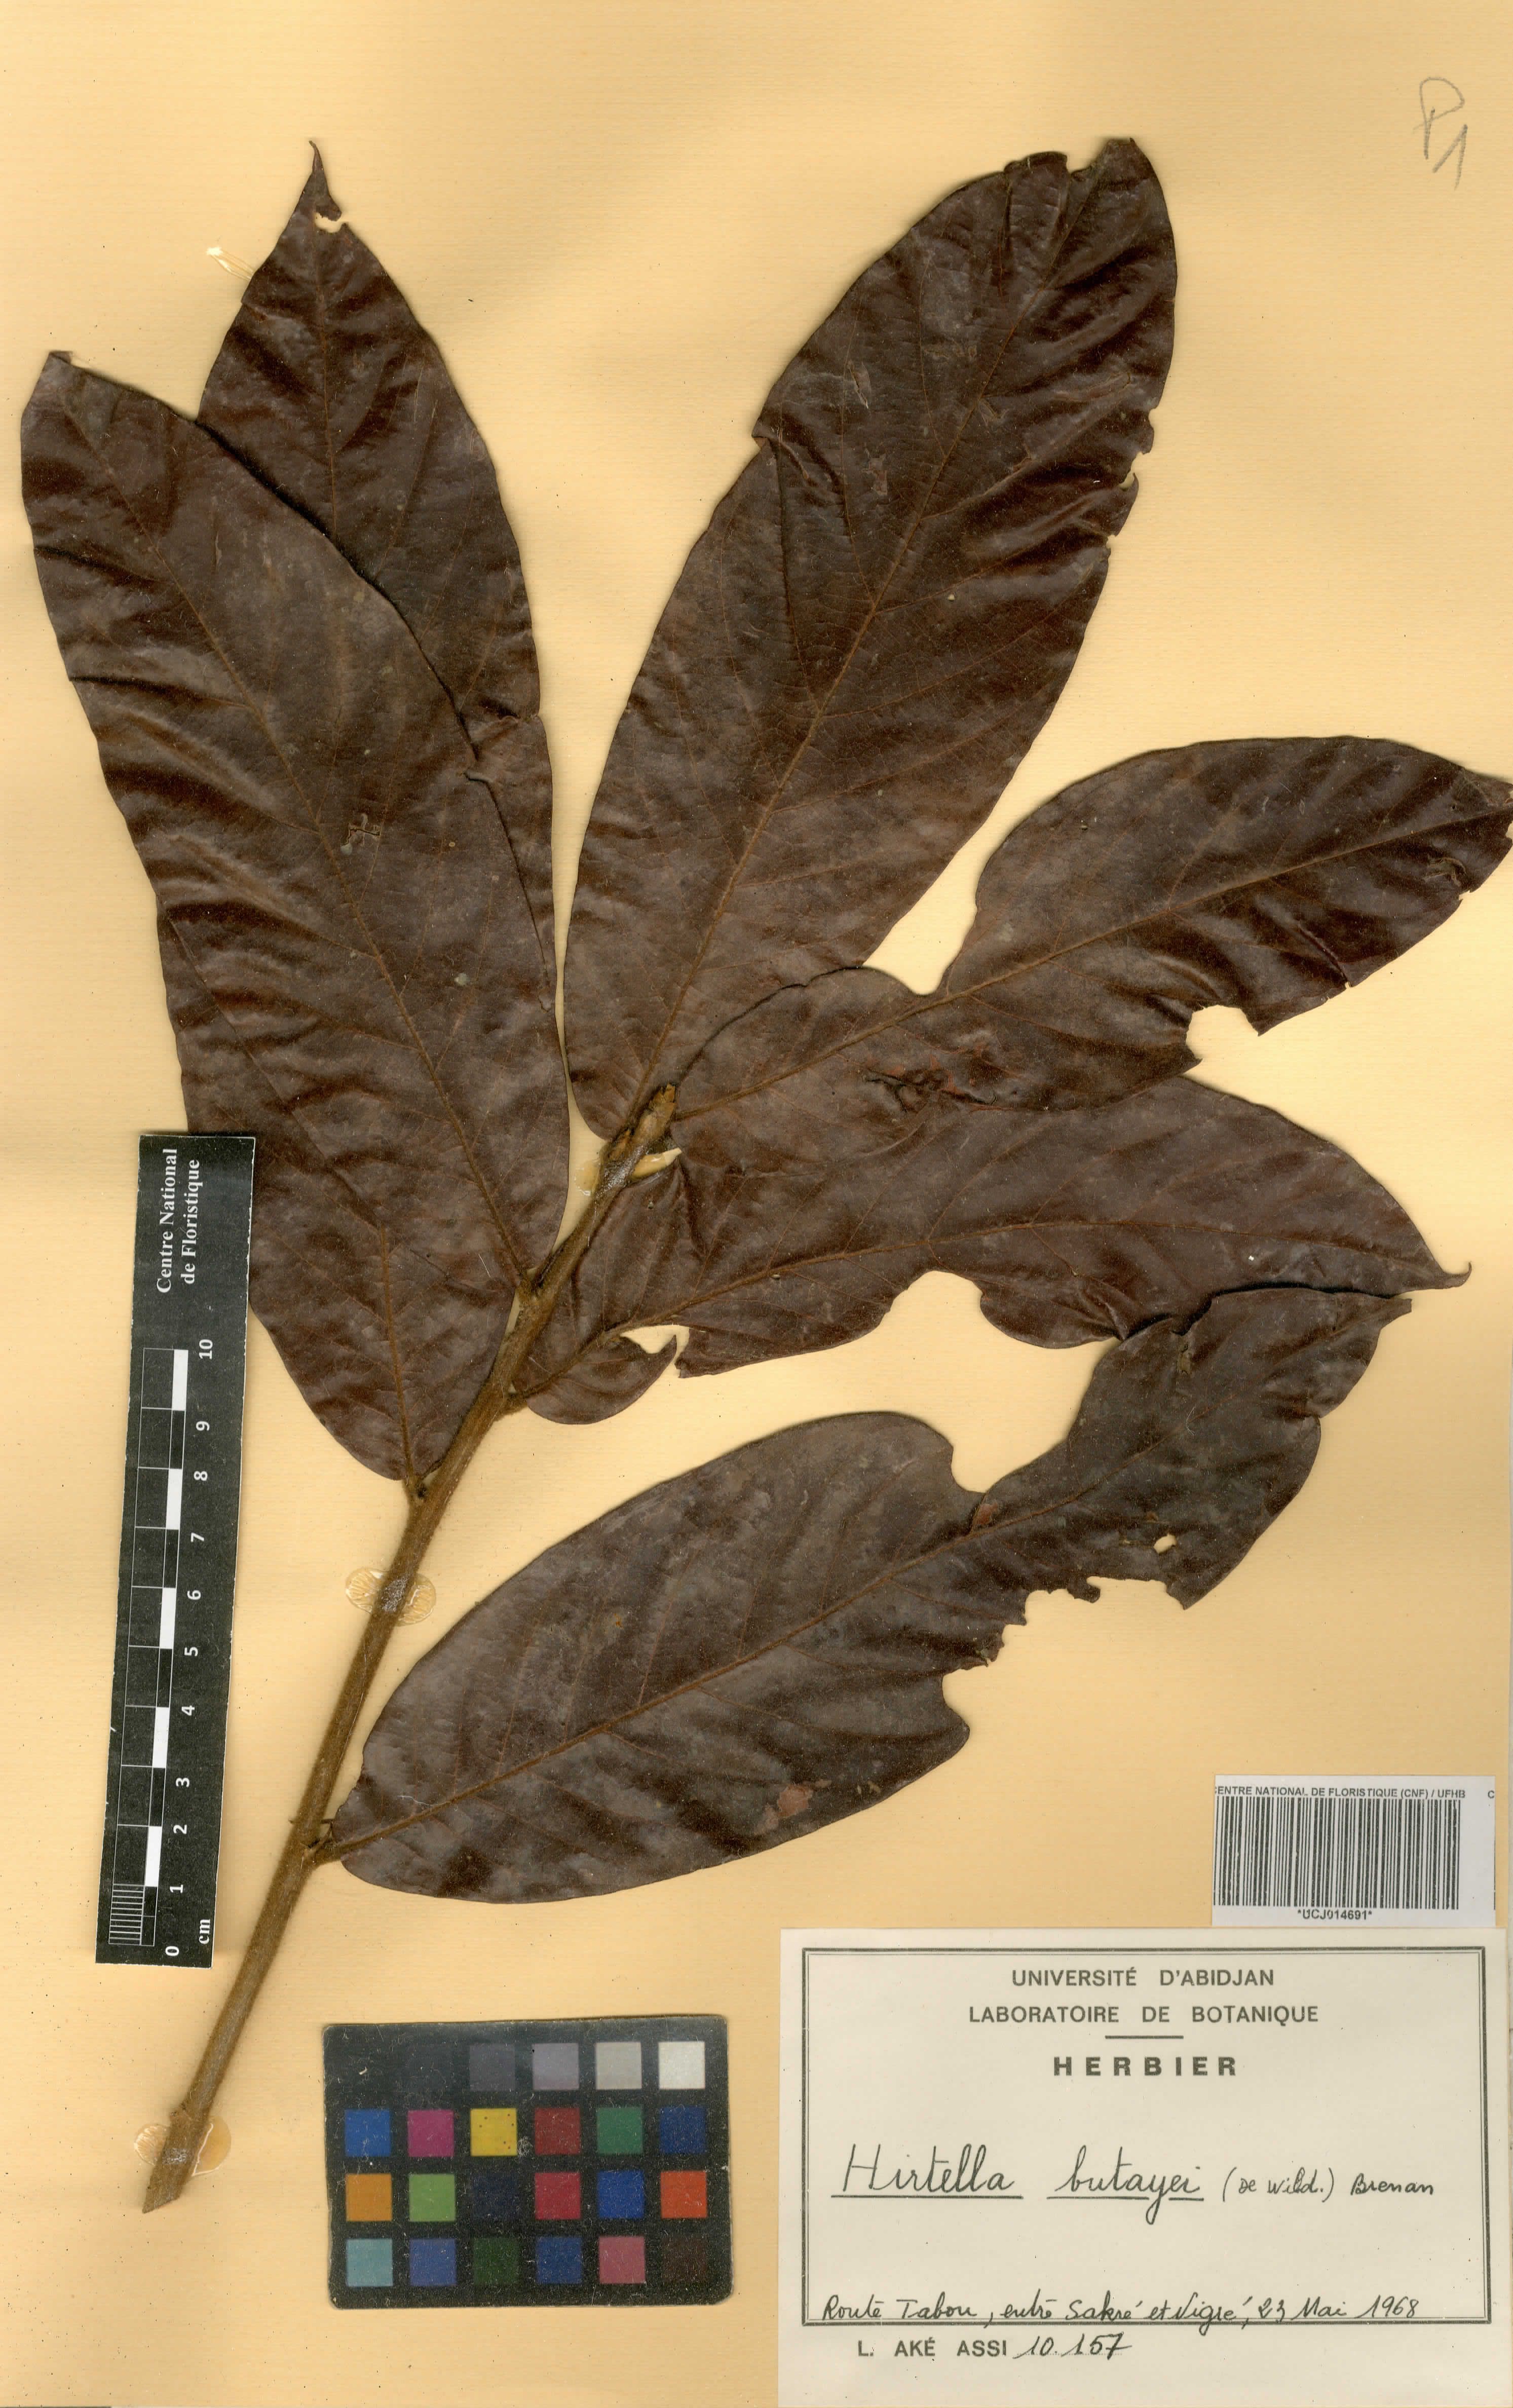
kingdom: Plantae
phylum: Tracheophyta
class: Magnoliopsida
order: Malpighiales
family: Chrysobalanaceae
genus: Magnistipula
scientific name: Magnistipula butayei
